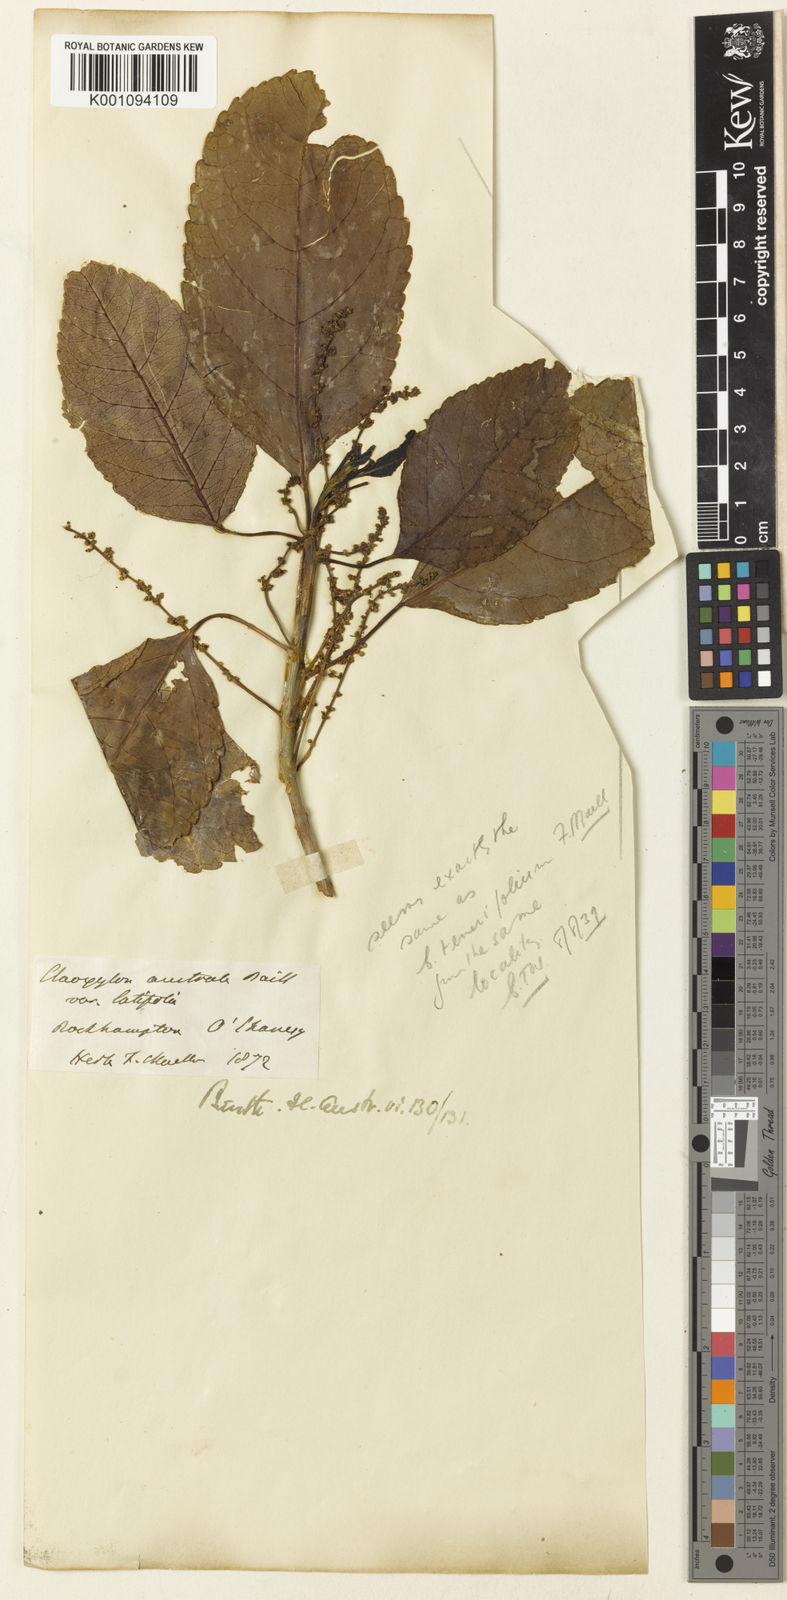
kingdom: Plantae
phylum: Tracheophyta
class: Magnoliopsida
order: Malpighiales
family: Euphorbiaceae
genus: Claoxylon
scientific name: Claoxylon tenerifolium
